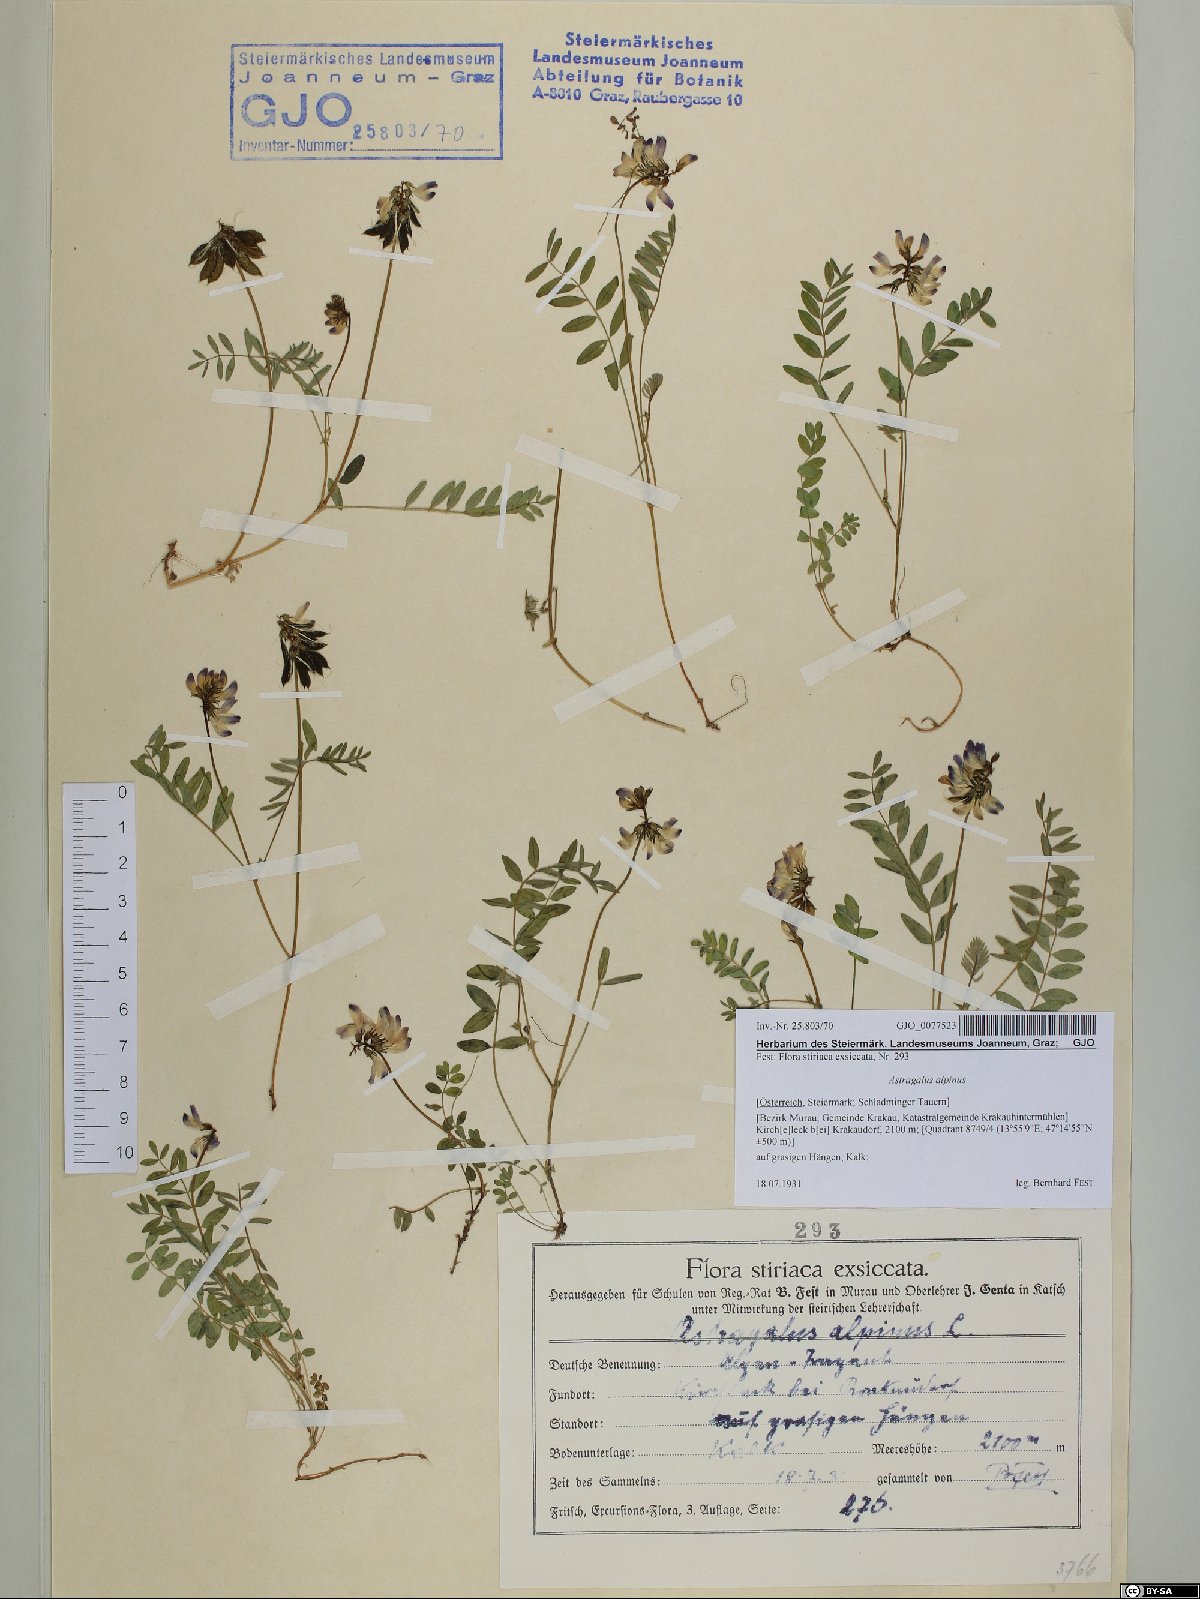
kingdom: Plantae
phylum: Tracheophyta
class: Magnoliopsida
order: Fabales
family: Fabaceae
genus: Astragalus
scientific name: Astragalus alpinus
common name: Alpine milk-vetch
